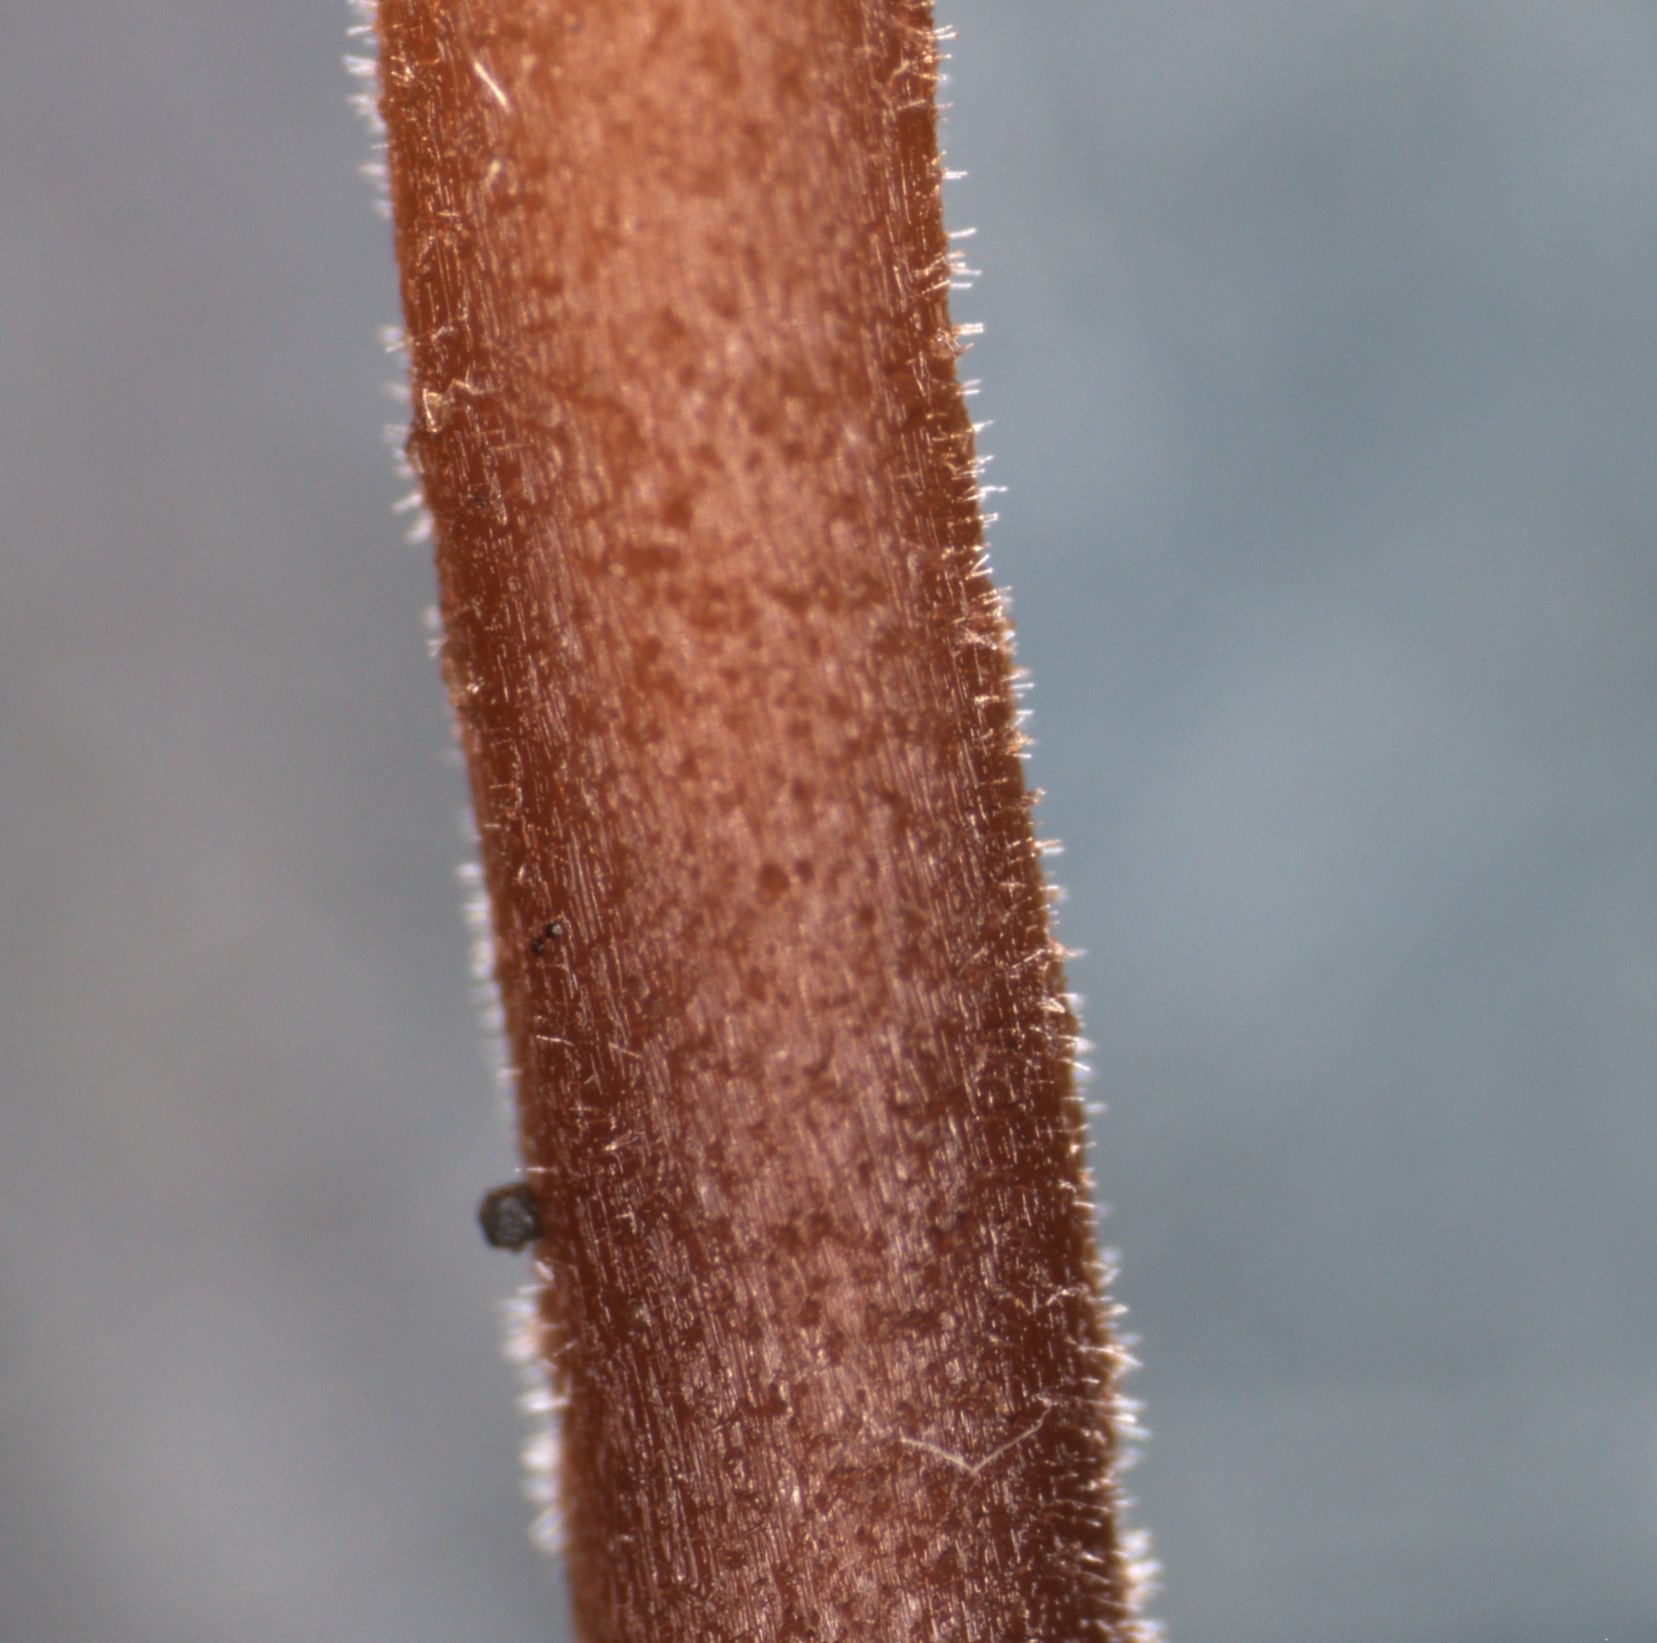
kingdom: Fungi
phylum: Basidiomycota
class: Agaricomycetes
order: Agaricales
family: Hymenogastraceae
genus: Galerina
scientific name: Galerina
